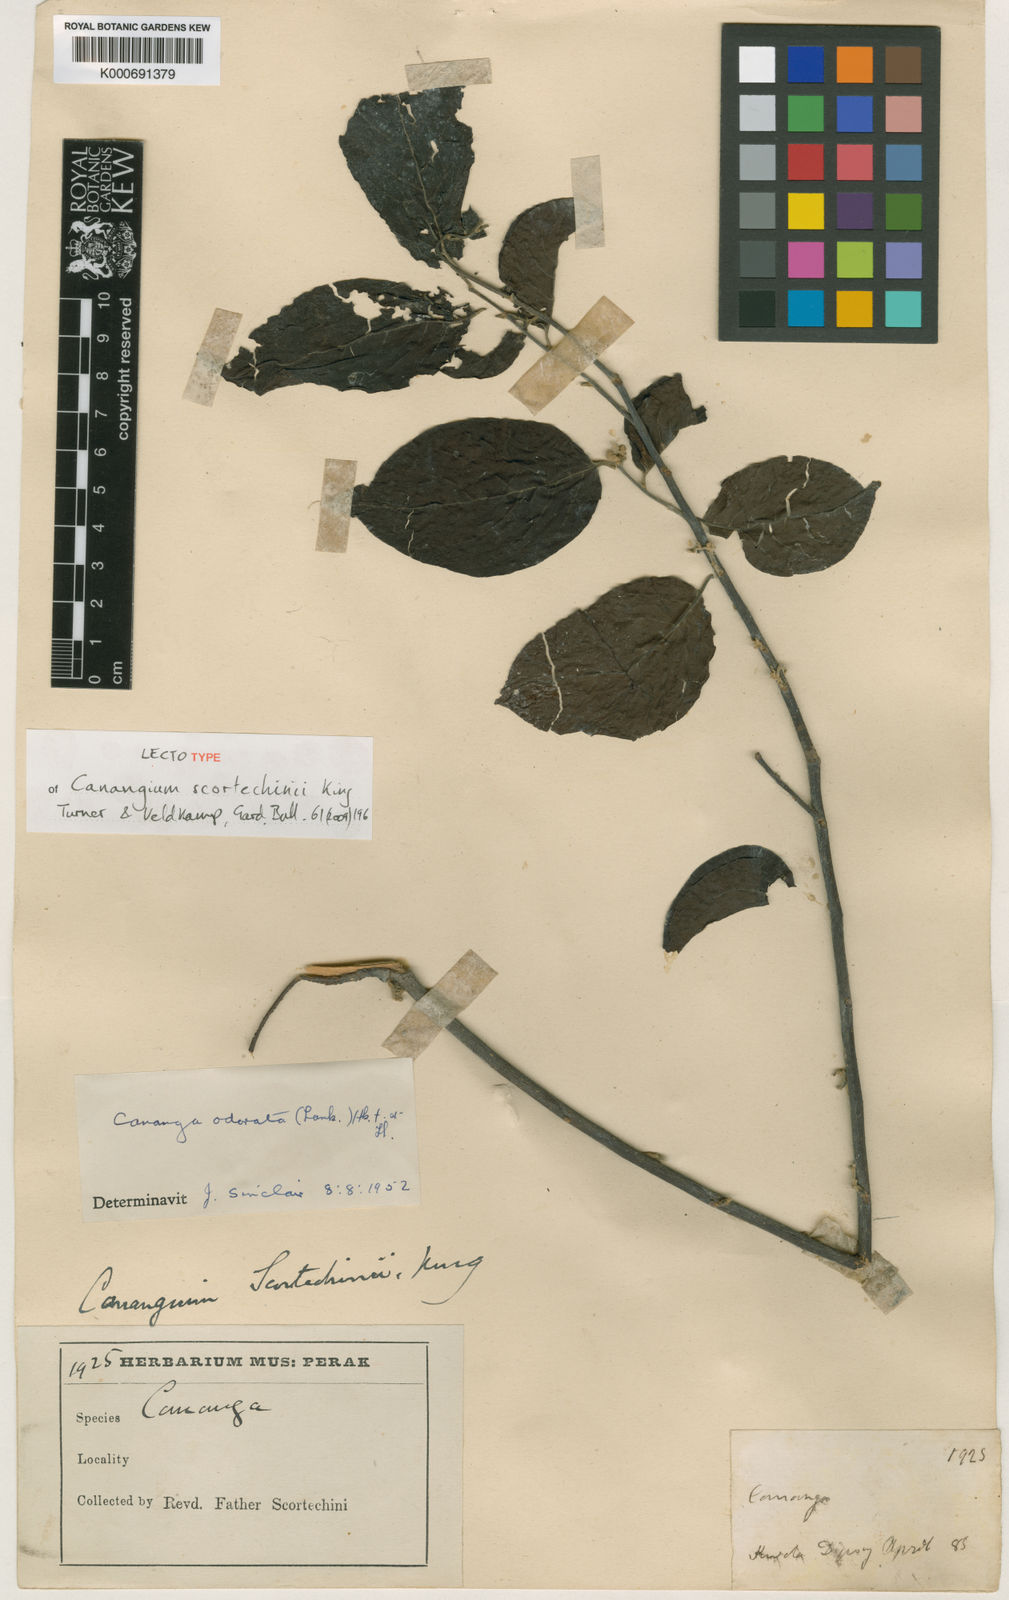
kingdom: Plantae
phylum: Tracheophyta
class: Magnoliopsida
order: Magnoliales
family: Annonaceae
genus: Cananga
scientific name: Cananga odorata
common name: Cananga tree
